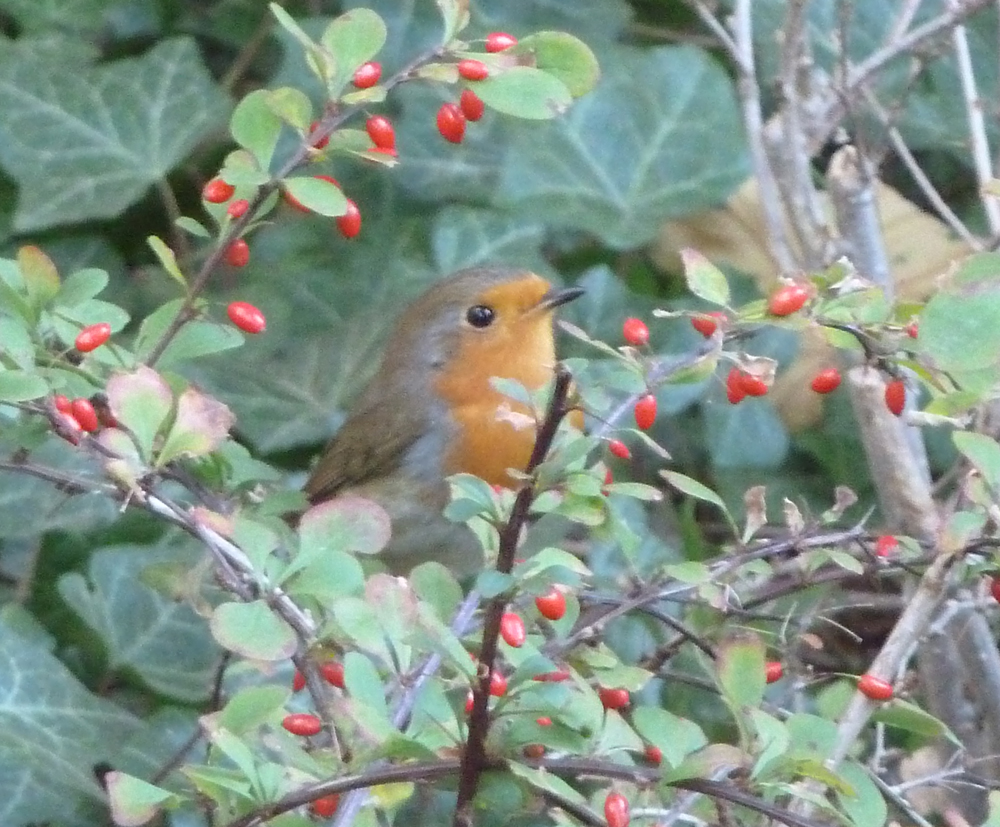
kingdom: Animalia
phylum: Chordata
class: Aves
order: Passeriformes
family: Muscicapidae
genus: Erithacus
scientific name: Erithacus rubecula
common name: European robin
